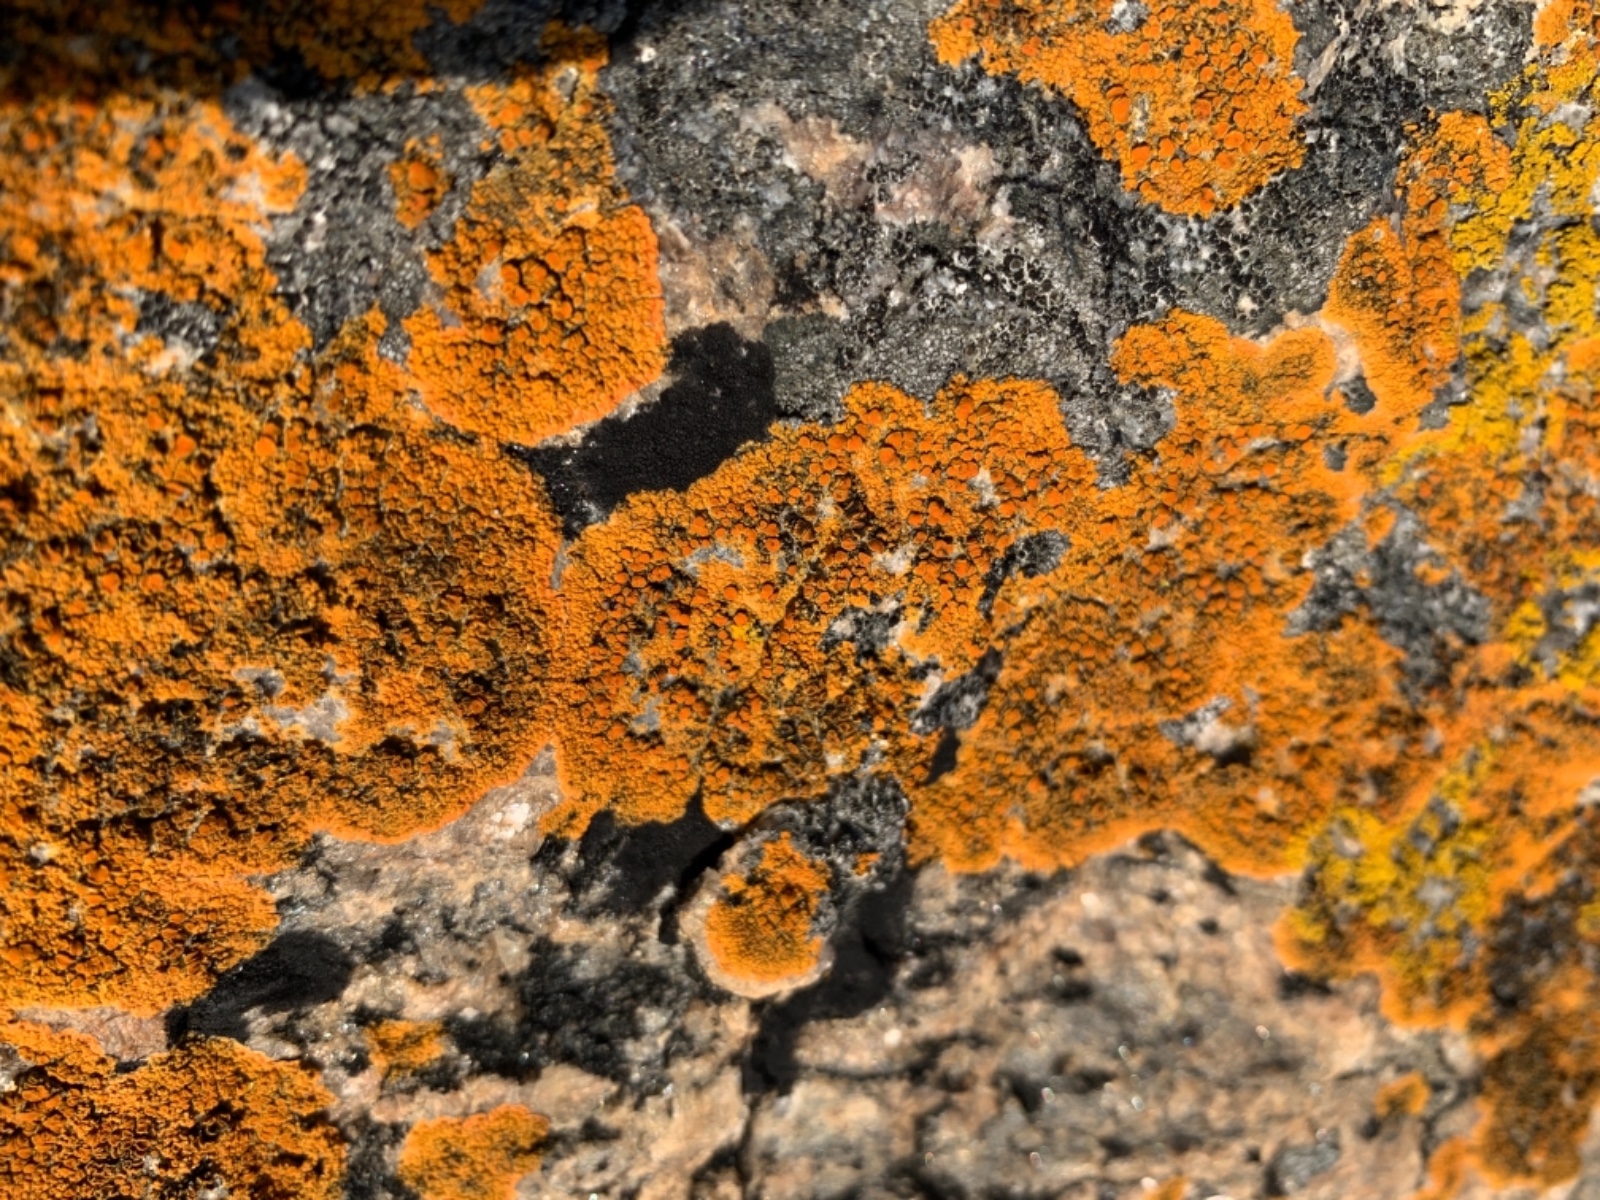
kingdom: Fungi
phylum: Ascomycota
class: Lecanoromycetes
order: Teloschistales
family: Teloschistaceae
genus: Flavoplaca
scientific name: Flavoplaca marina
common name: strand-orangelav
